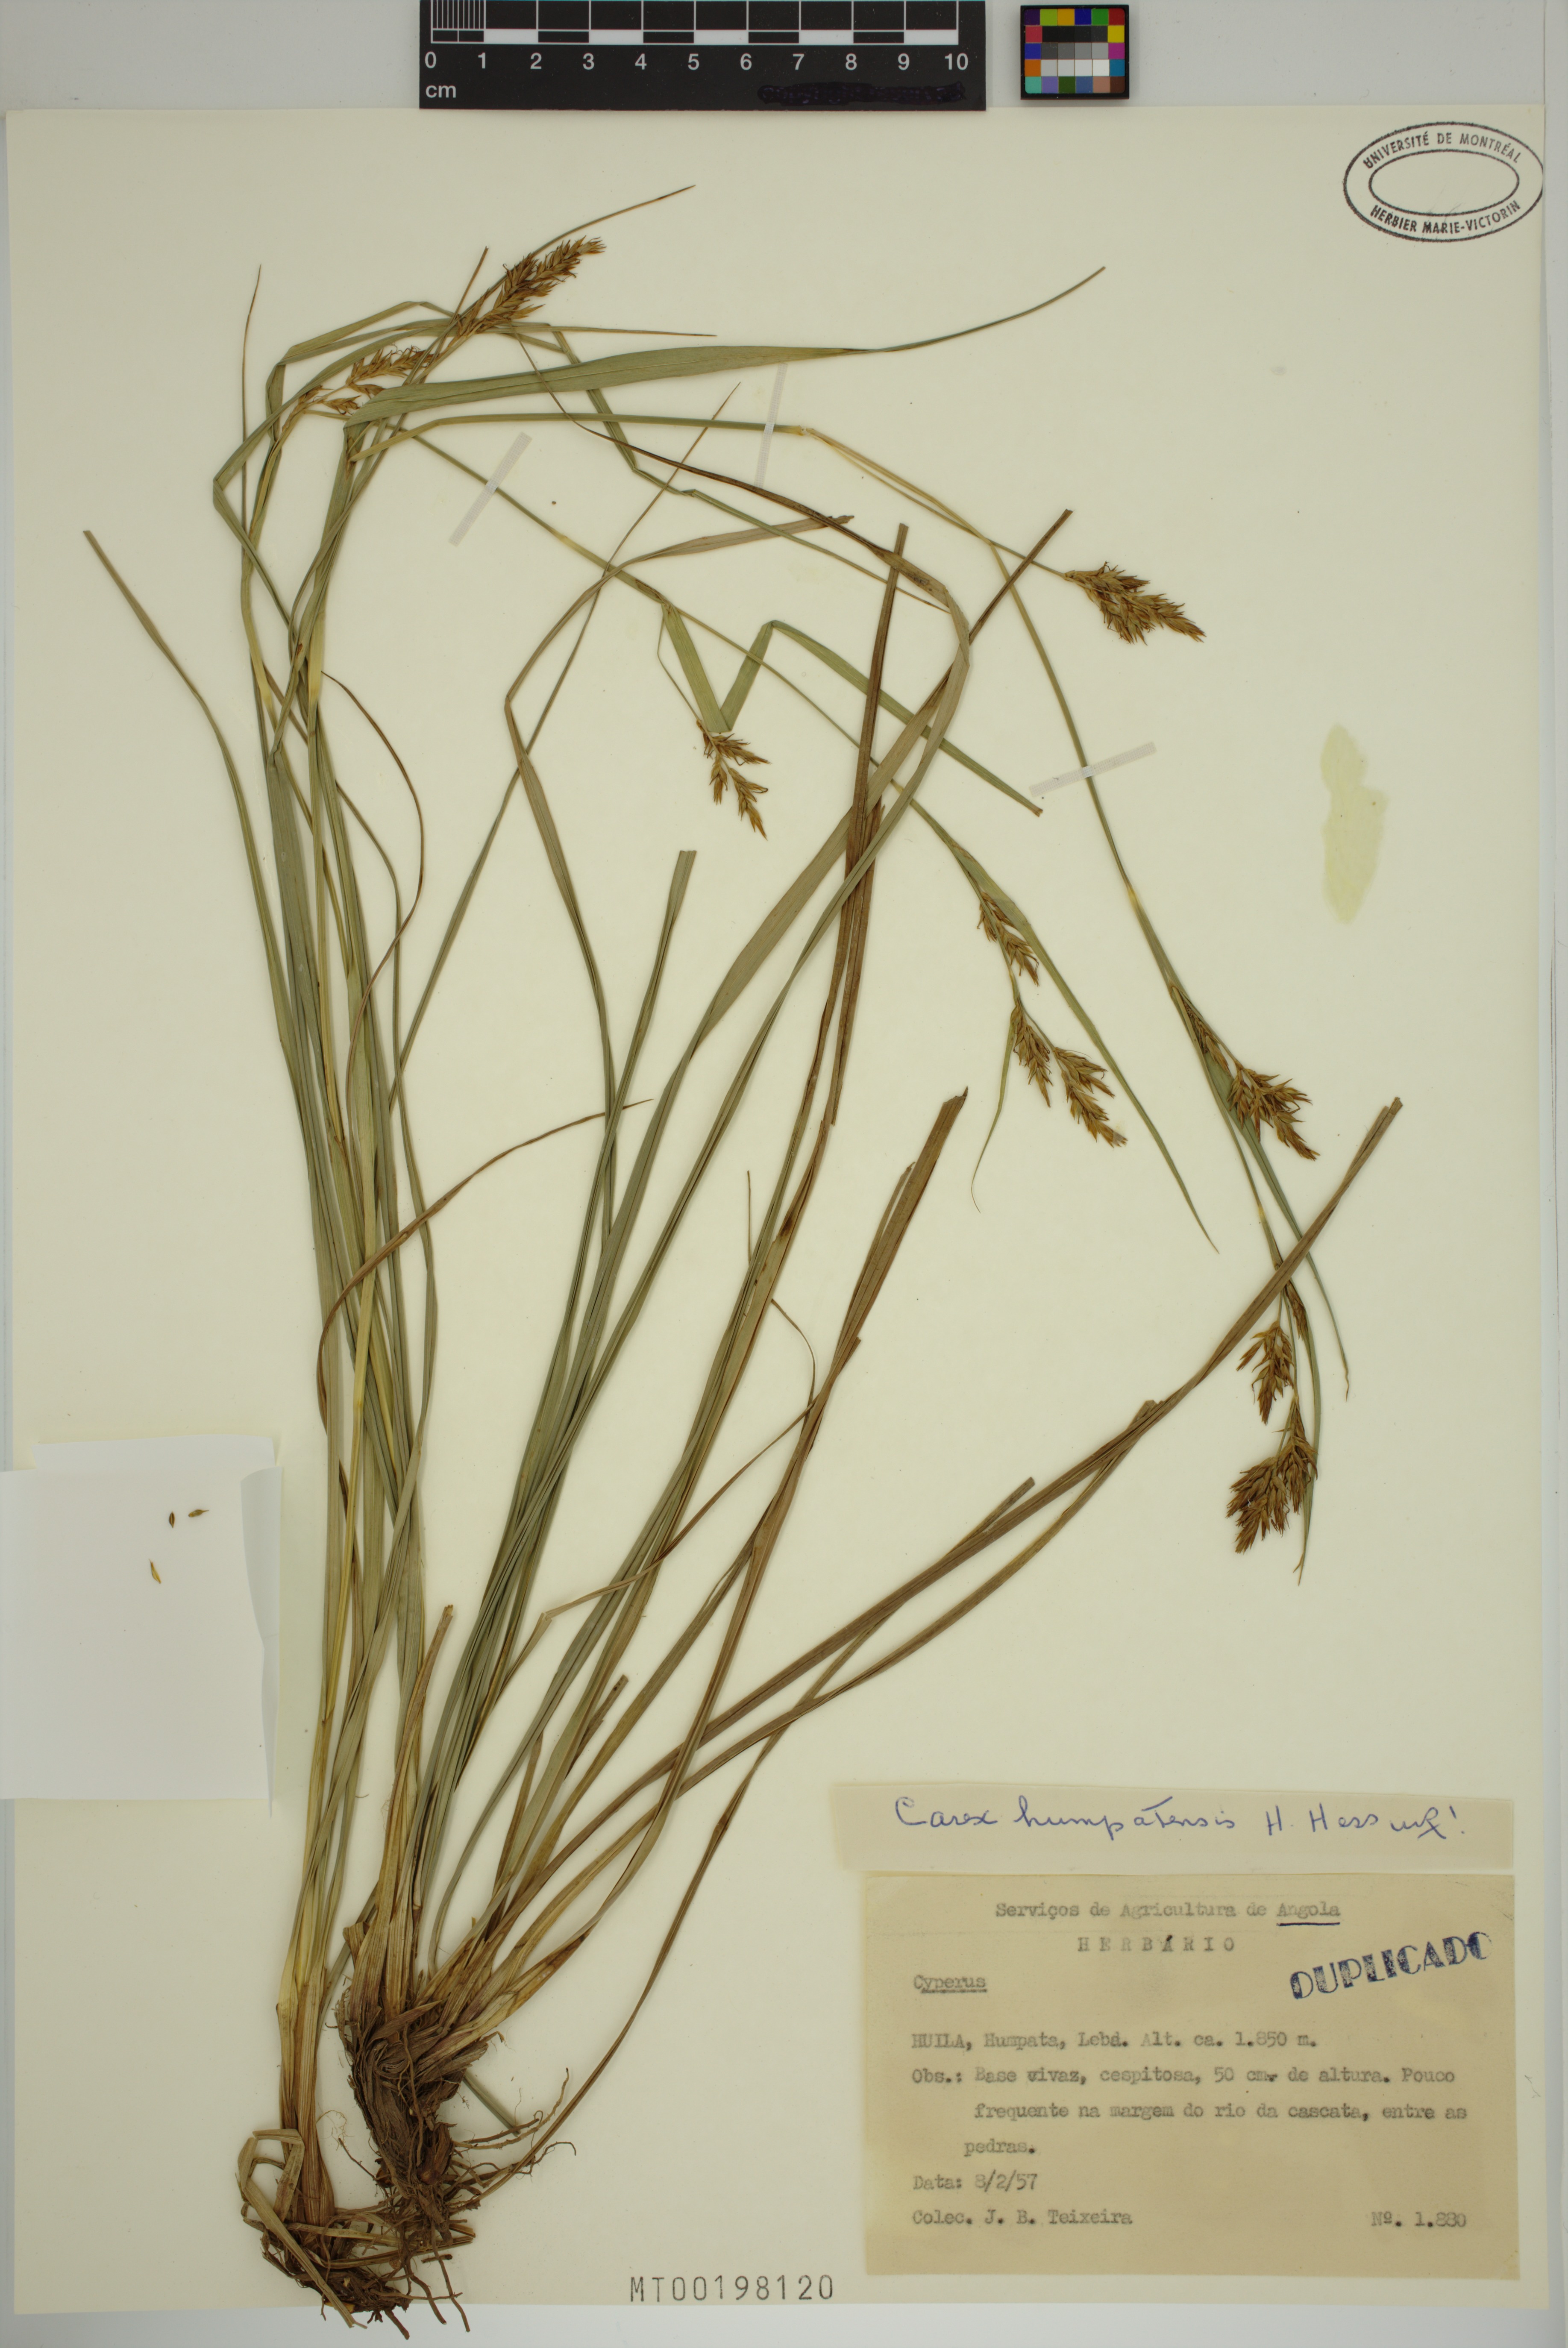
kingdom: Plantae
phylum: Tracheophyta
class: Liliopsida
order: Poales
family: Cyperaceae
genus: Carex
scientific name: Carex humpatensis
